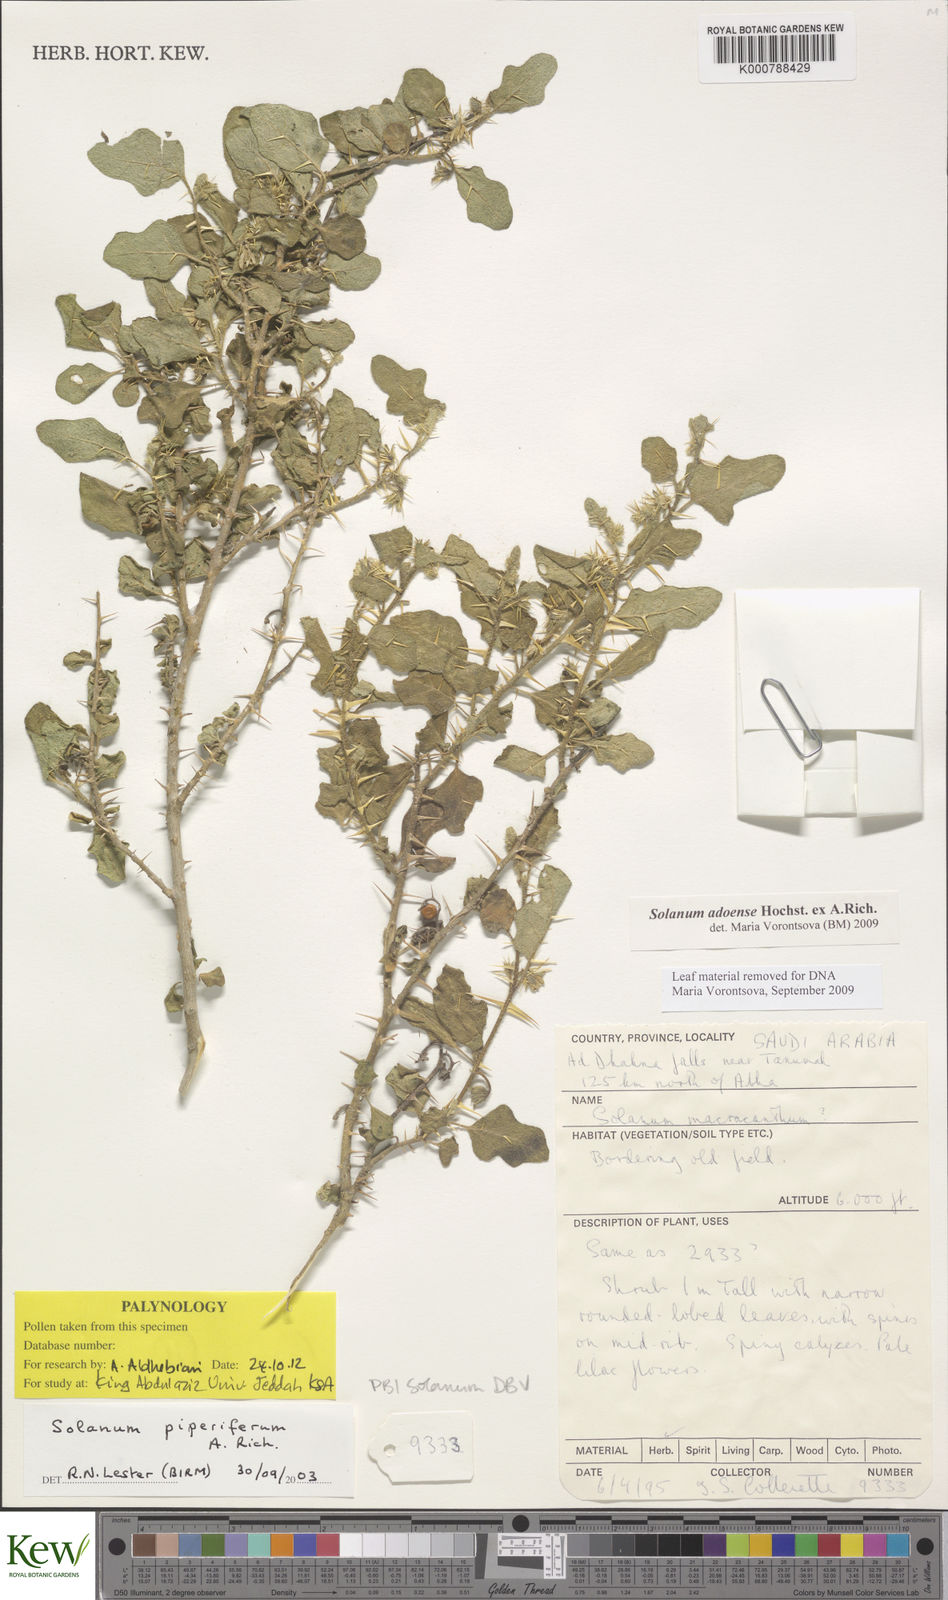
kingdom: Plantae
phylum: Tracheophyta
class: Magnoliopsida
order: Solanales
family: Solanaceae
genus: Solanum
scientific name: Solanum adoense
